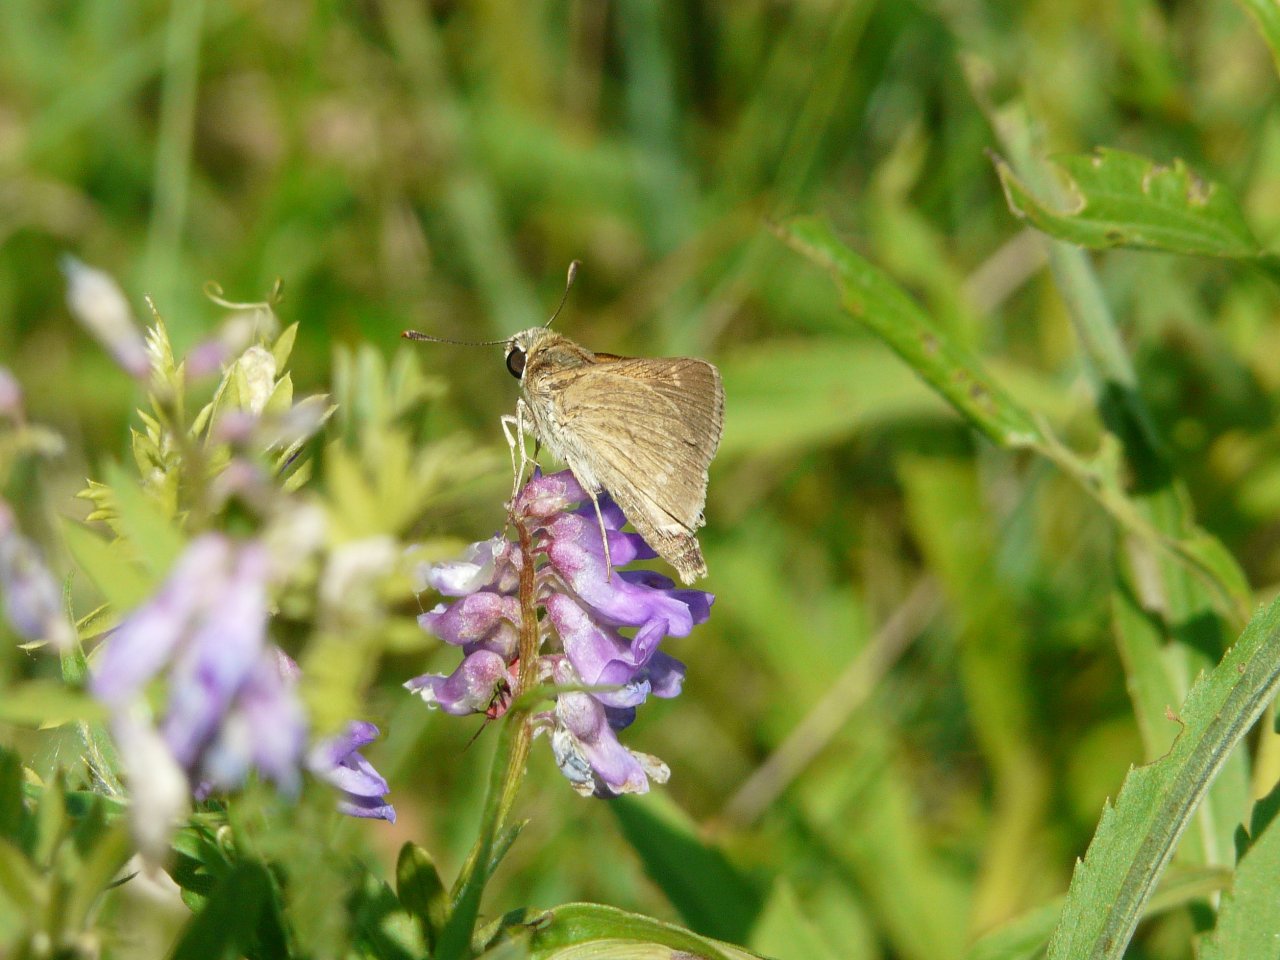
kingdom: Animalia
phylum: Arthropoda
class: Insecta
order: Lepidoptera
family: Hesperiidae
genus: Polites
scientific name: Polites
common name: Crossline Skipper
